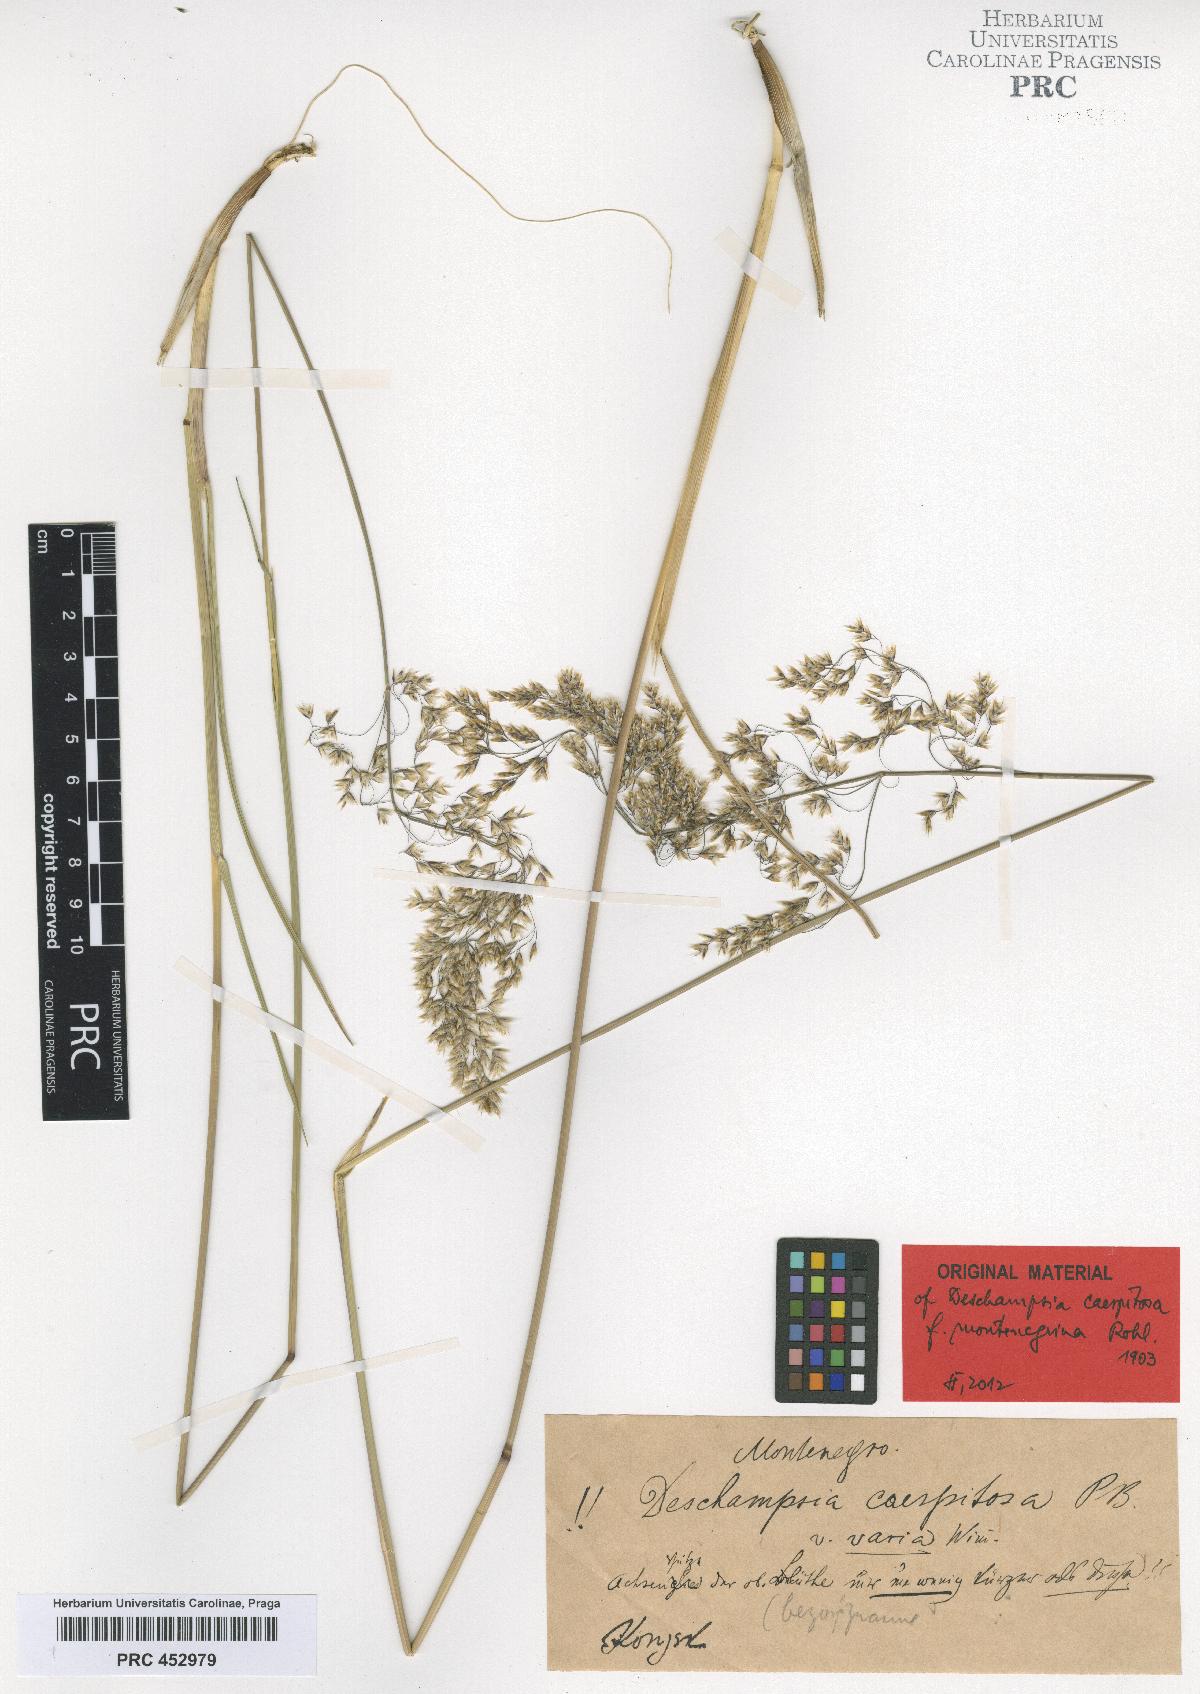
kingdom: Plantae
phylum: Tracheophyta
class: Liliopsida
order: Poales
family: Poaceae
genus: Deschampsia
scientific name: Deschampsia cespitosa
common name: Tufted hair-grass
